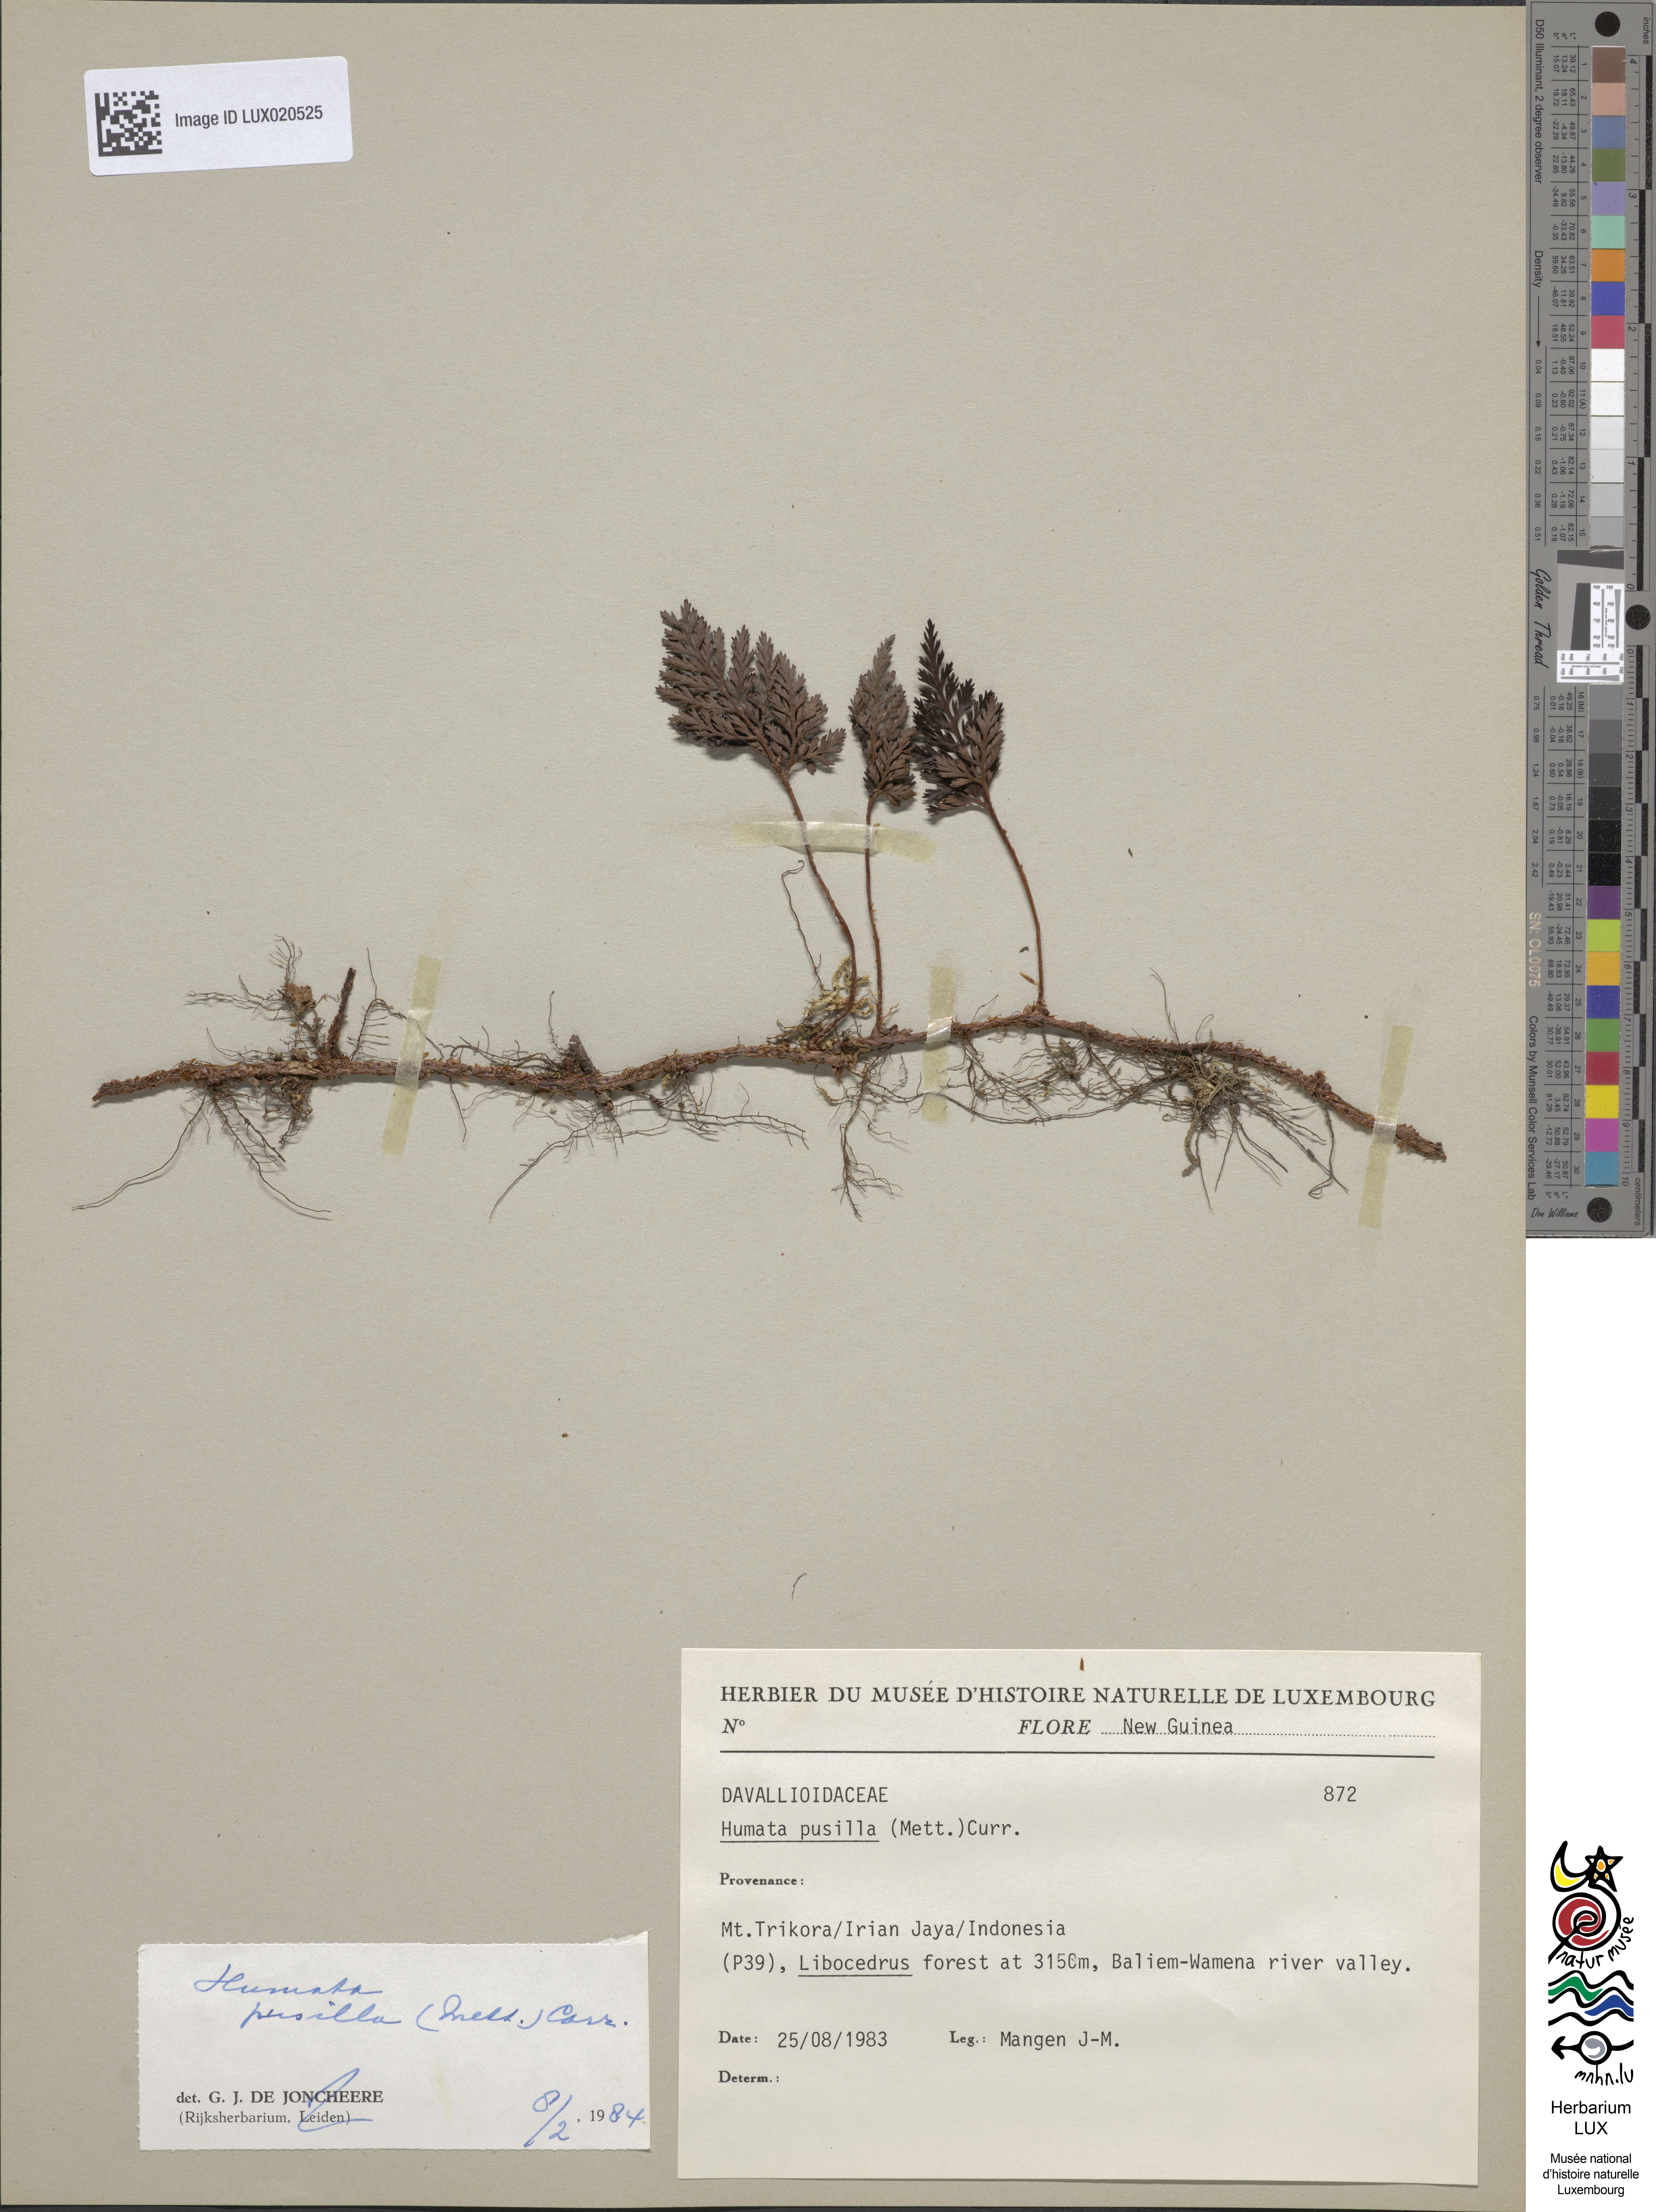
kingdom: Plantae
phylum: Tracheophyta
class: Polypodiopsida
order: Polypodiales
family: Davalliaceae
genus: Davallia
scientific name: Davallia pusilla
